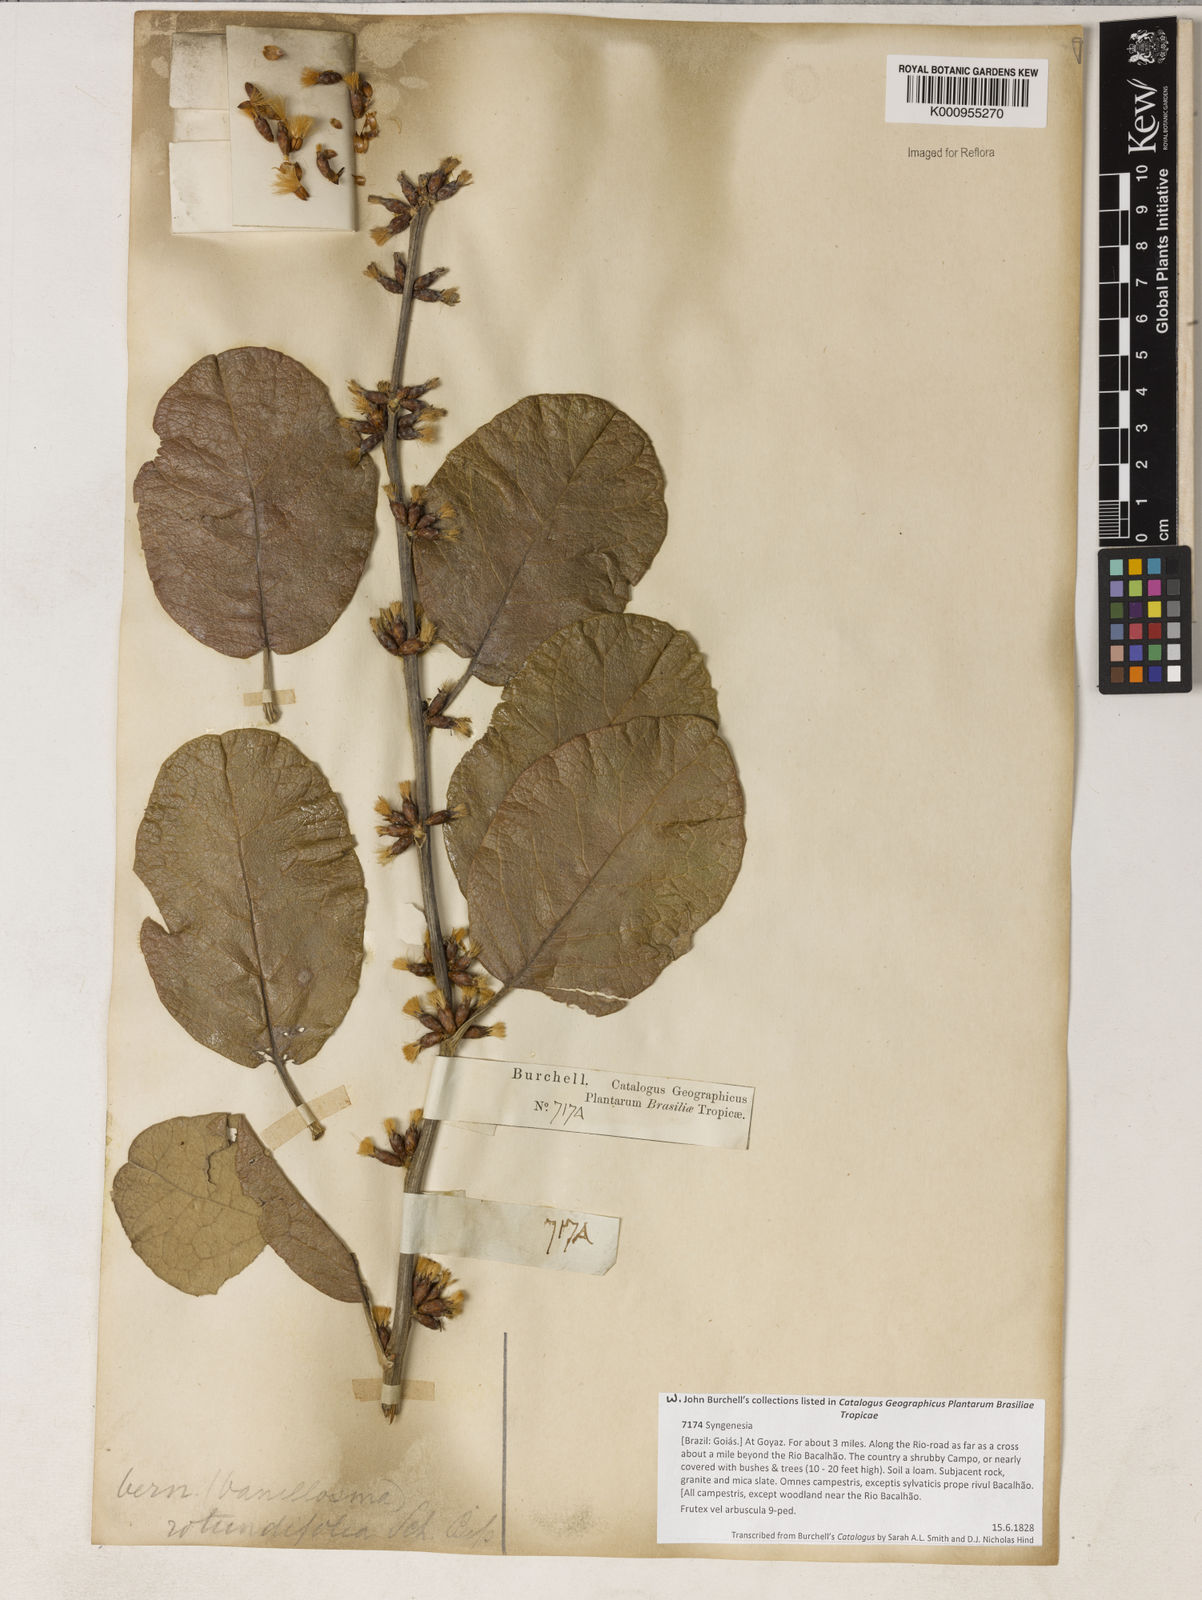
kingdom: Plantae
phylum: Tracheophyta
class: Magnoliopsida
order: Asterales
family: Asteraceae
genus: Piptocarpha
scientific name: Piptocarpha rotundifolia
